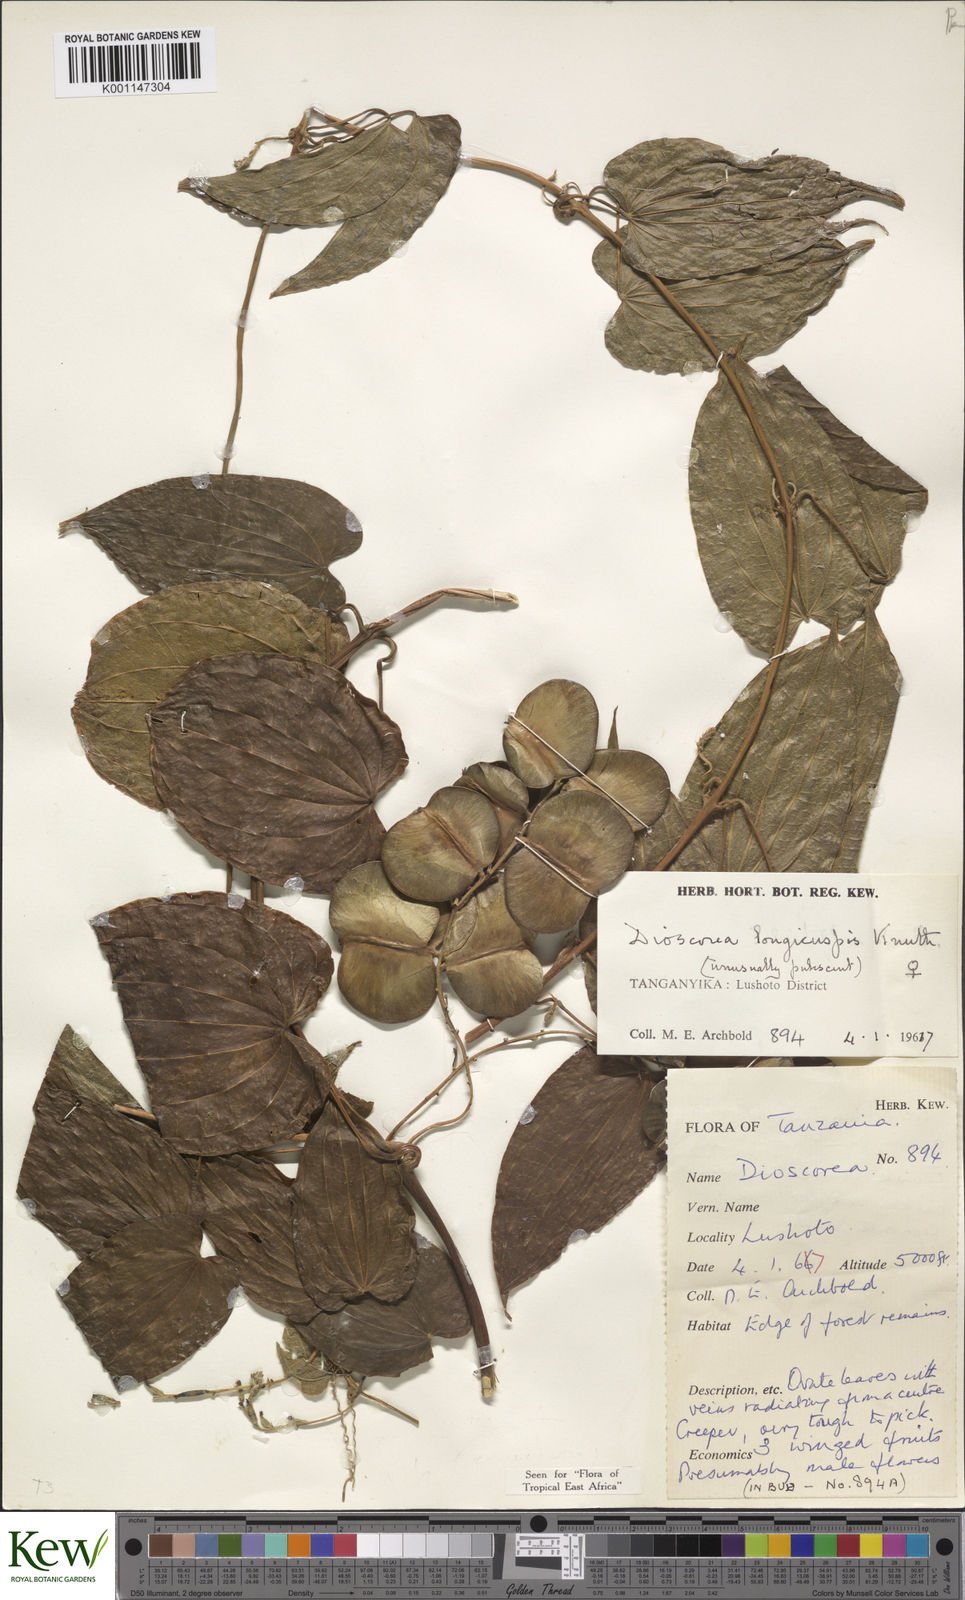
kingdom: Plantae
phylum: Tracheophyta
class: Liliopsida
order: Dioscoreales
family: Dioscoreaceae
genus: Dioscorea
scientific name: Dioscorea longicuspis
